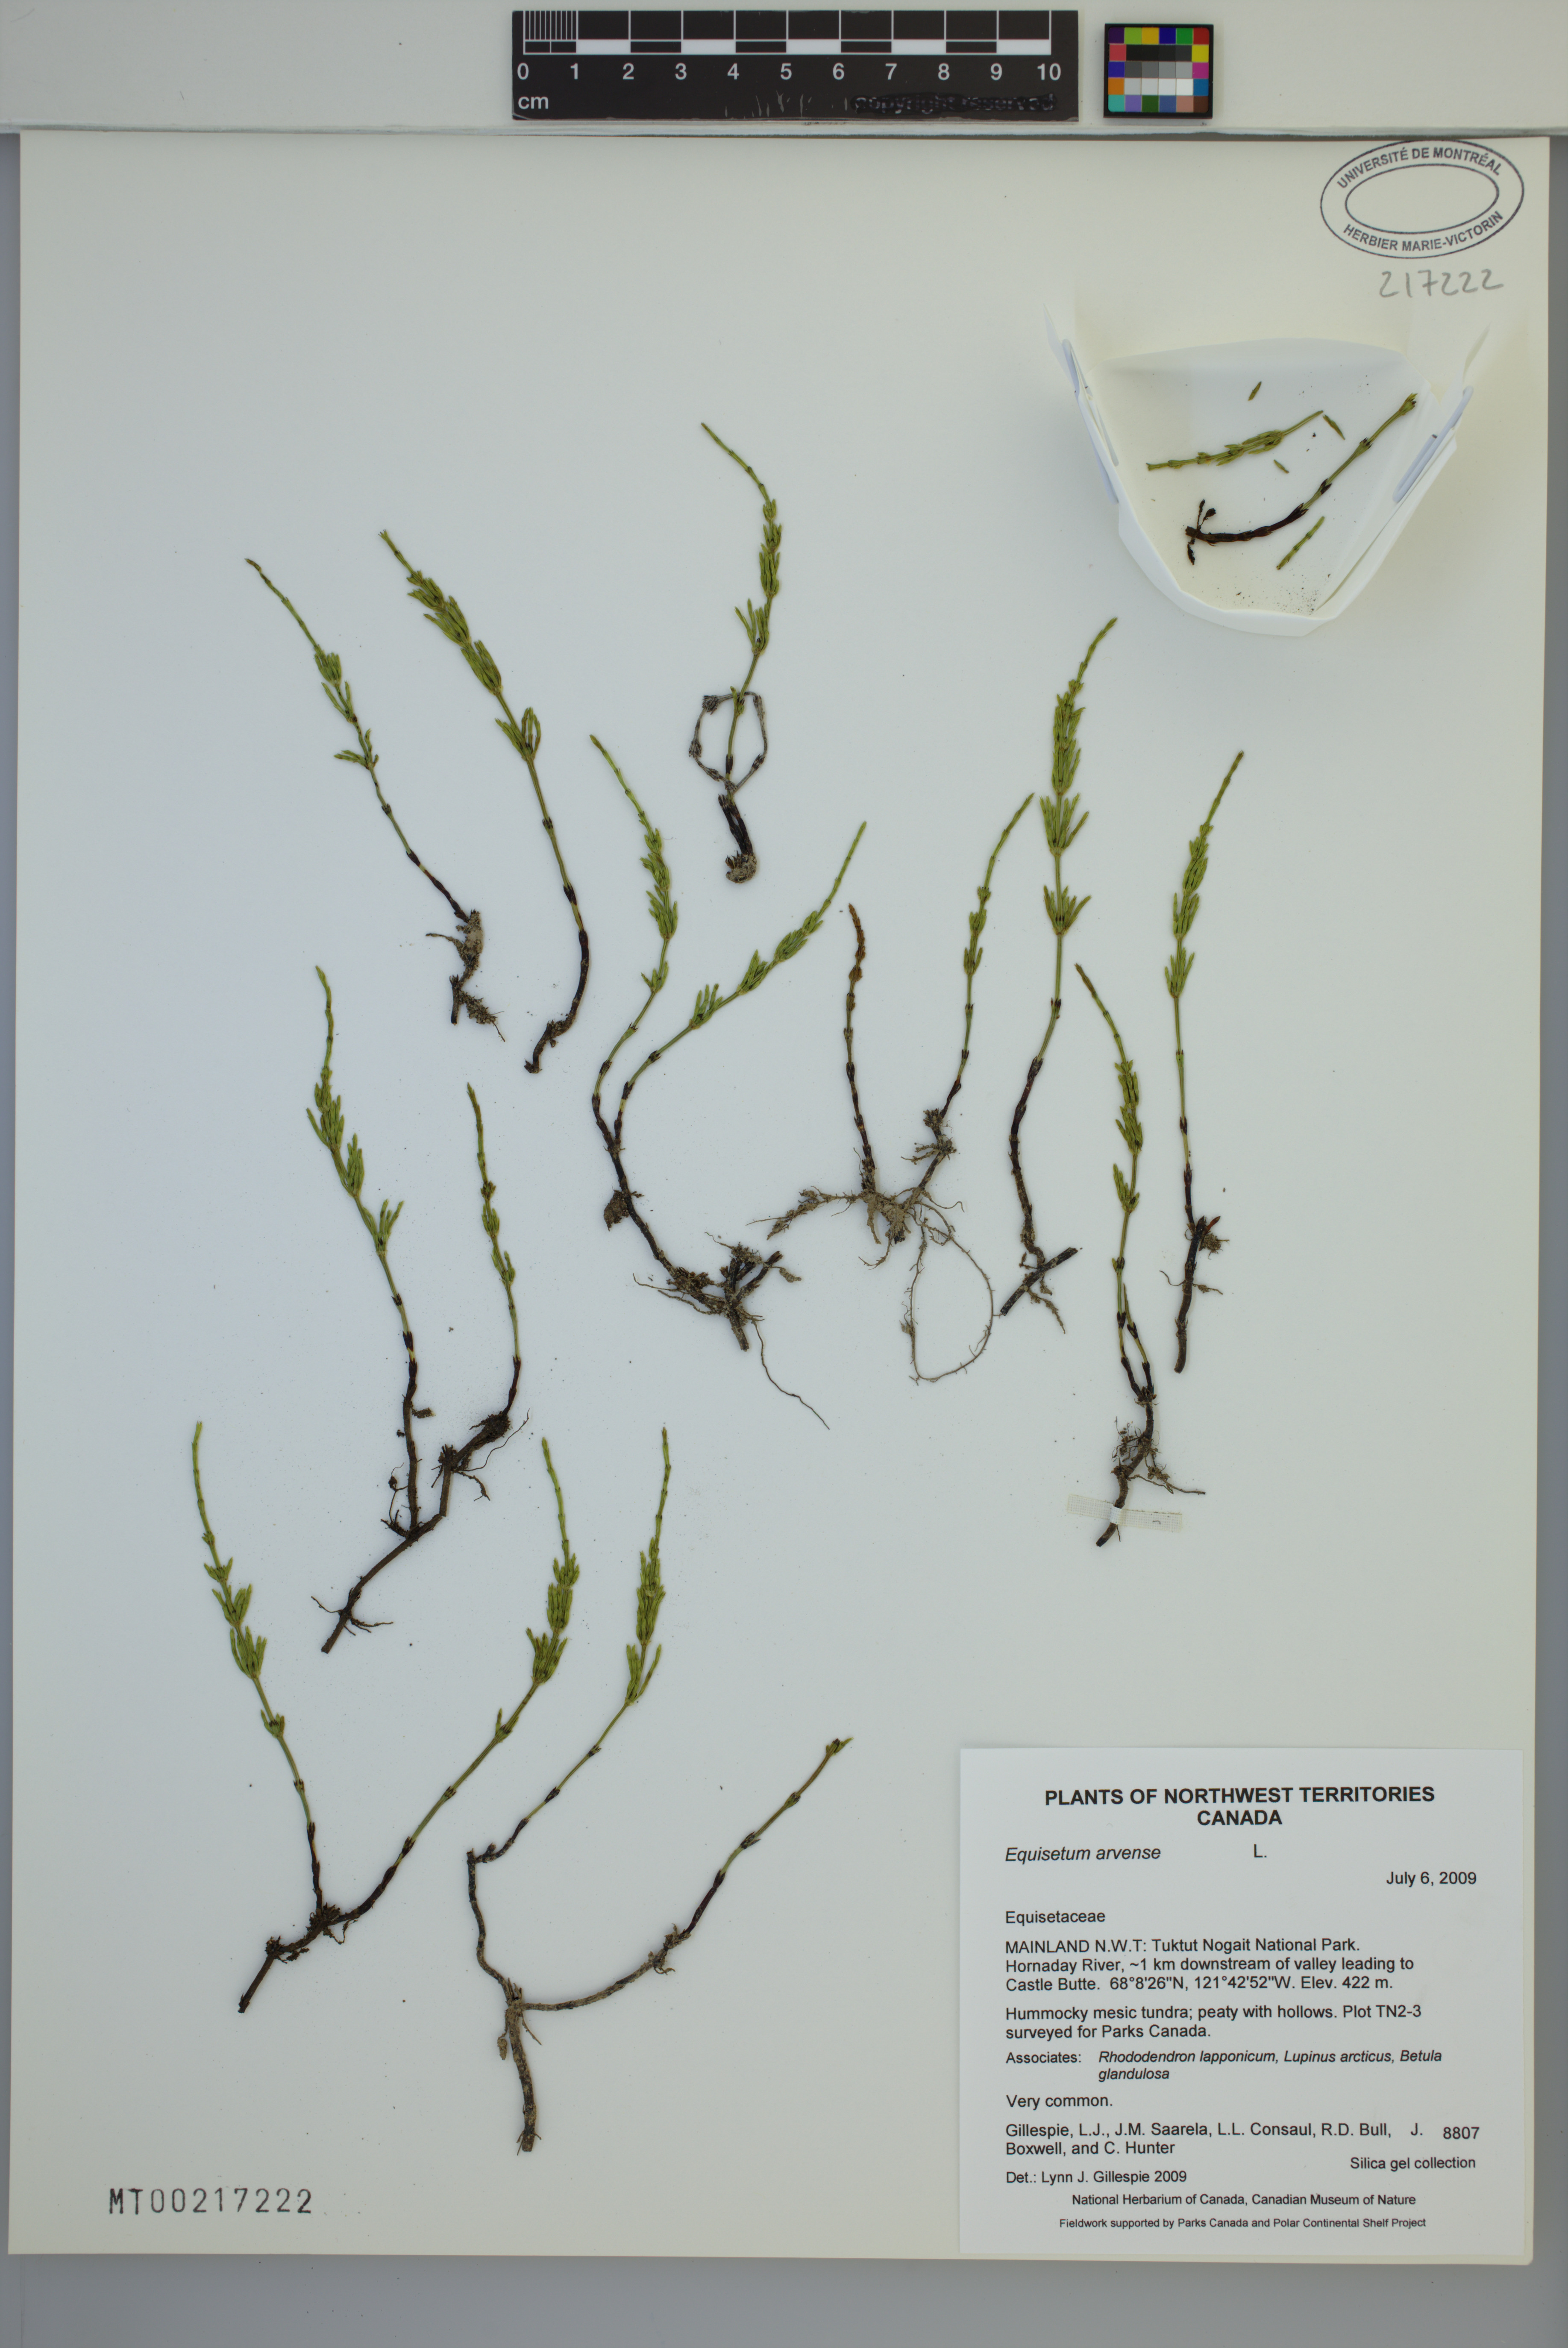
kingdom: Plantae
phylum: Tracheophyta
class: Polypodiopsida
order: Equisetales
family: Equisetaceae
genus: Equisetum
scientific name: Equisetum arvense
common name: Field horsetail
